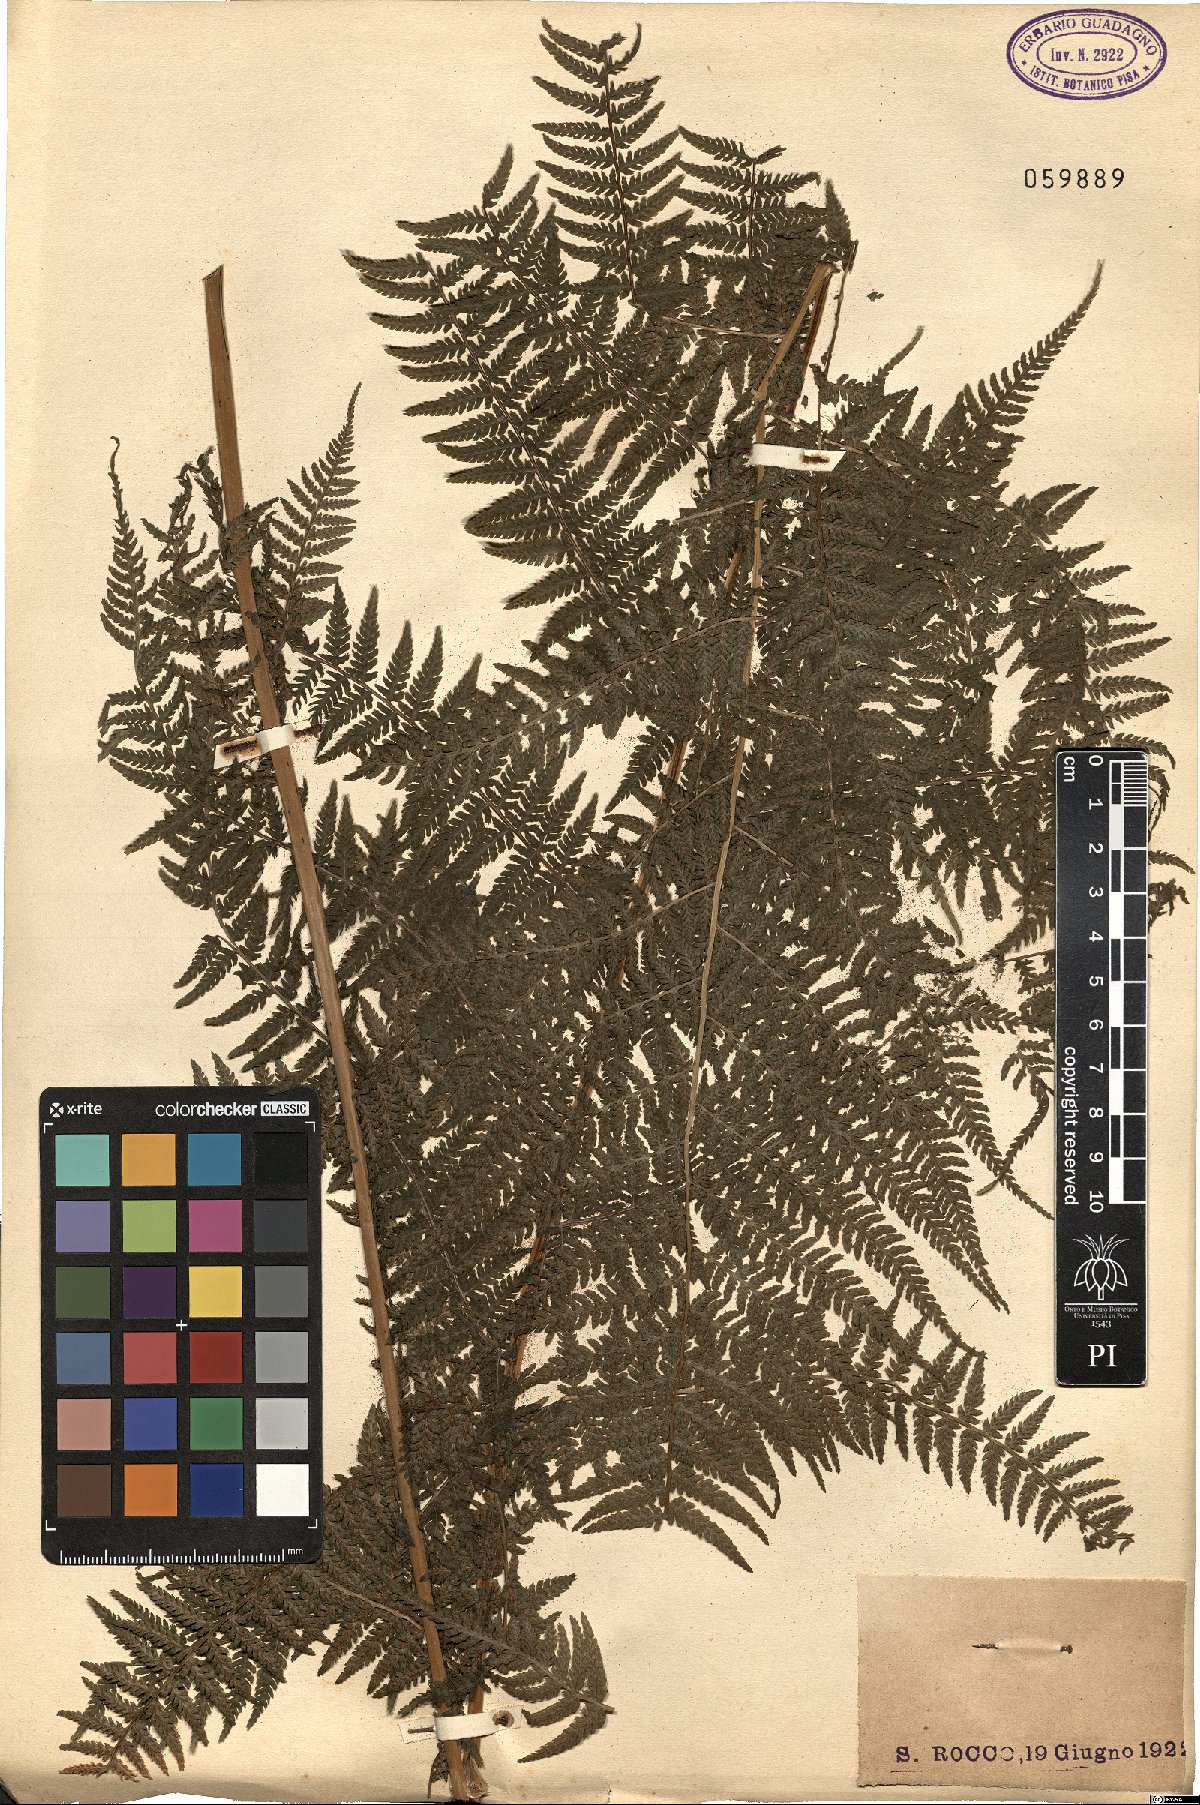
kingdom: Plantae
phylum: Tracheophyta
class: Polypodiopsida
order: Polypodiales
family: Dennstaedtiaceae
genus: Pteridium
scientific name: Pteridium aquilinum
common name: Bracken
